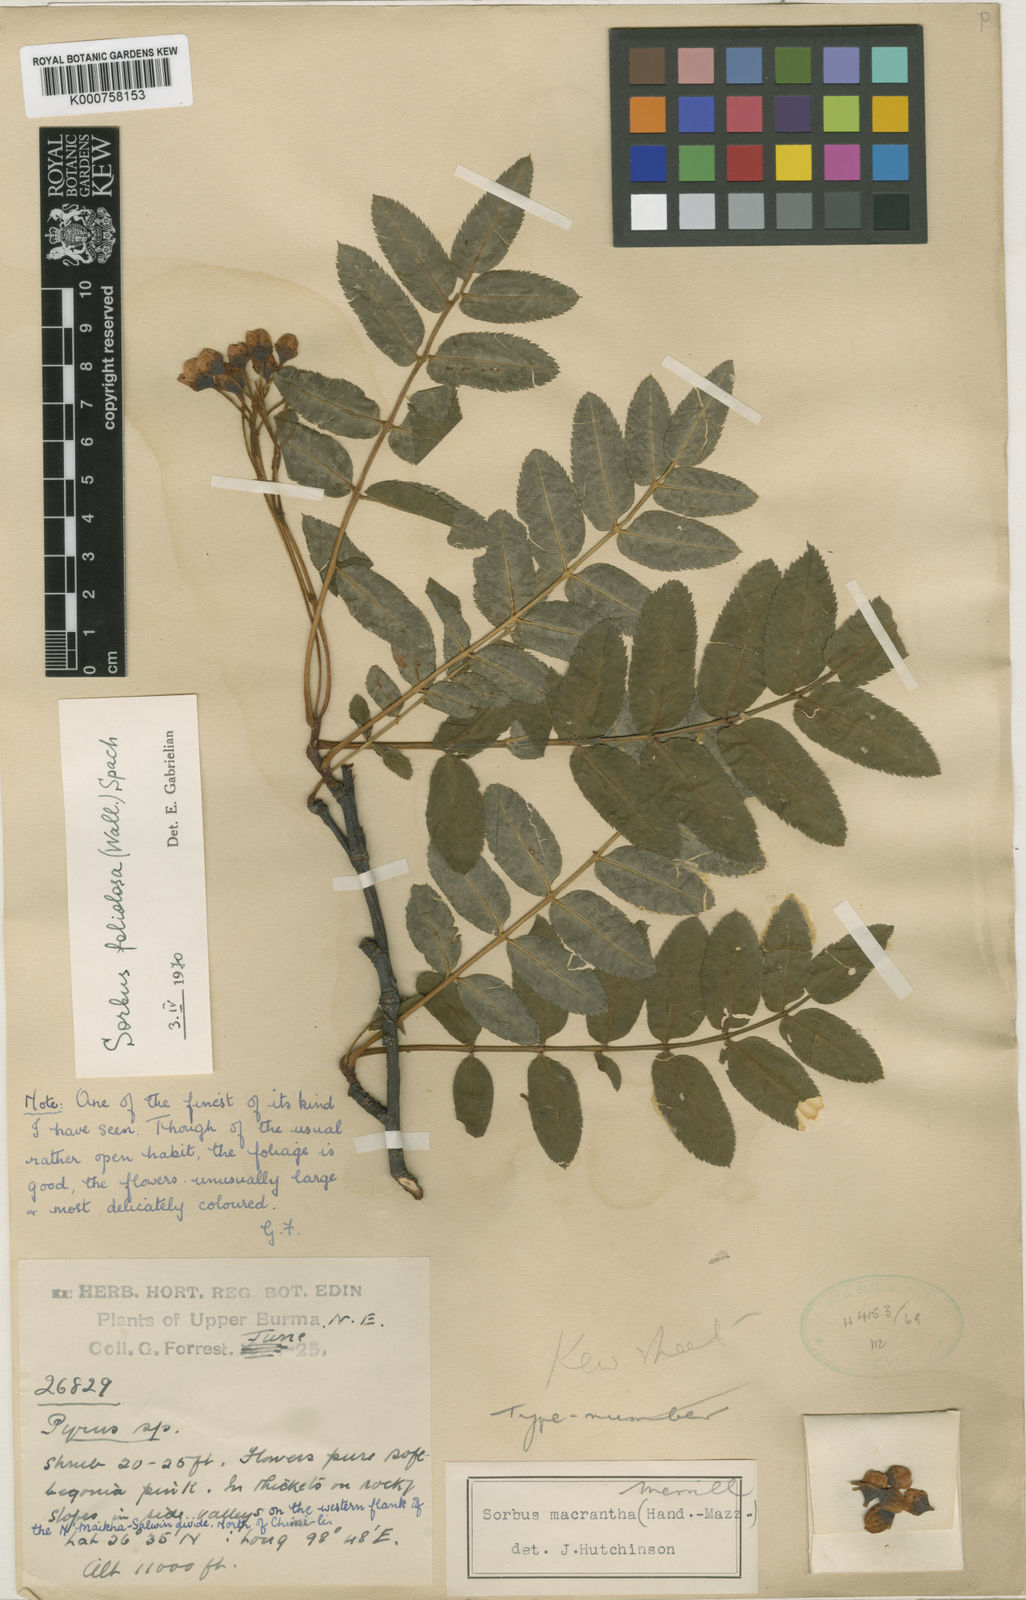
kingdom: Plantae
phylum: Tracheophyta
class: Magnoliopsida
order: Rosales
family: Rosaceae
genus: Sorbus
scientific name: Sorbus macrantha
